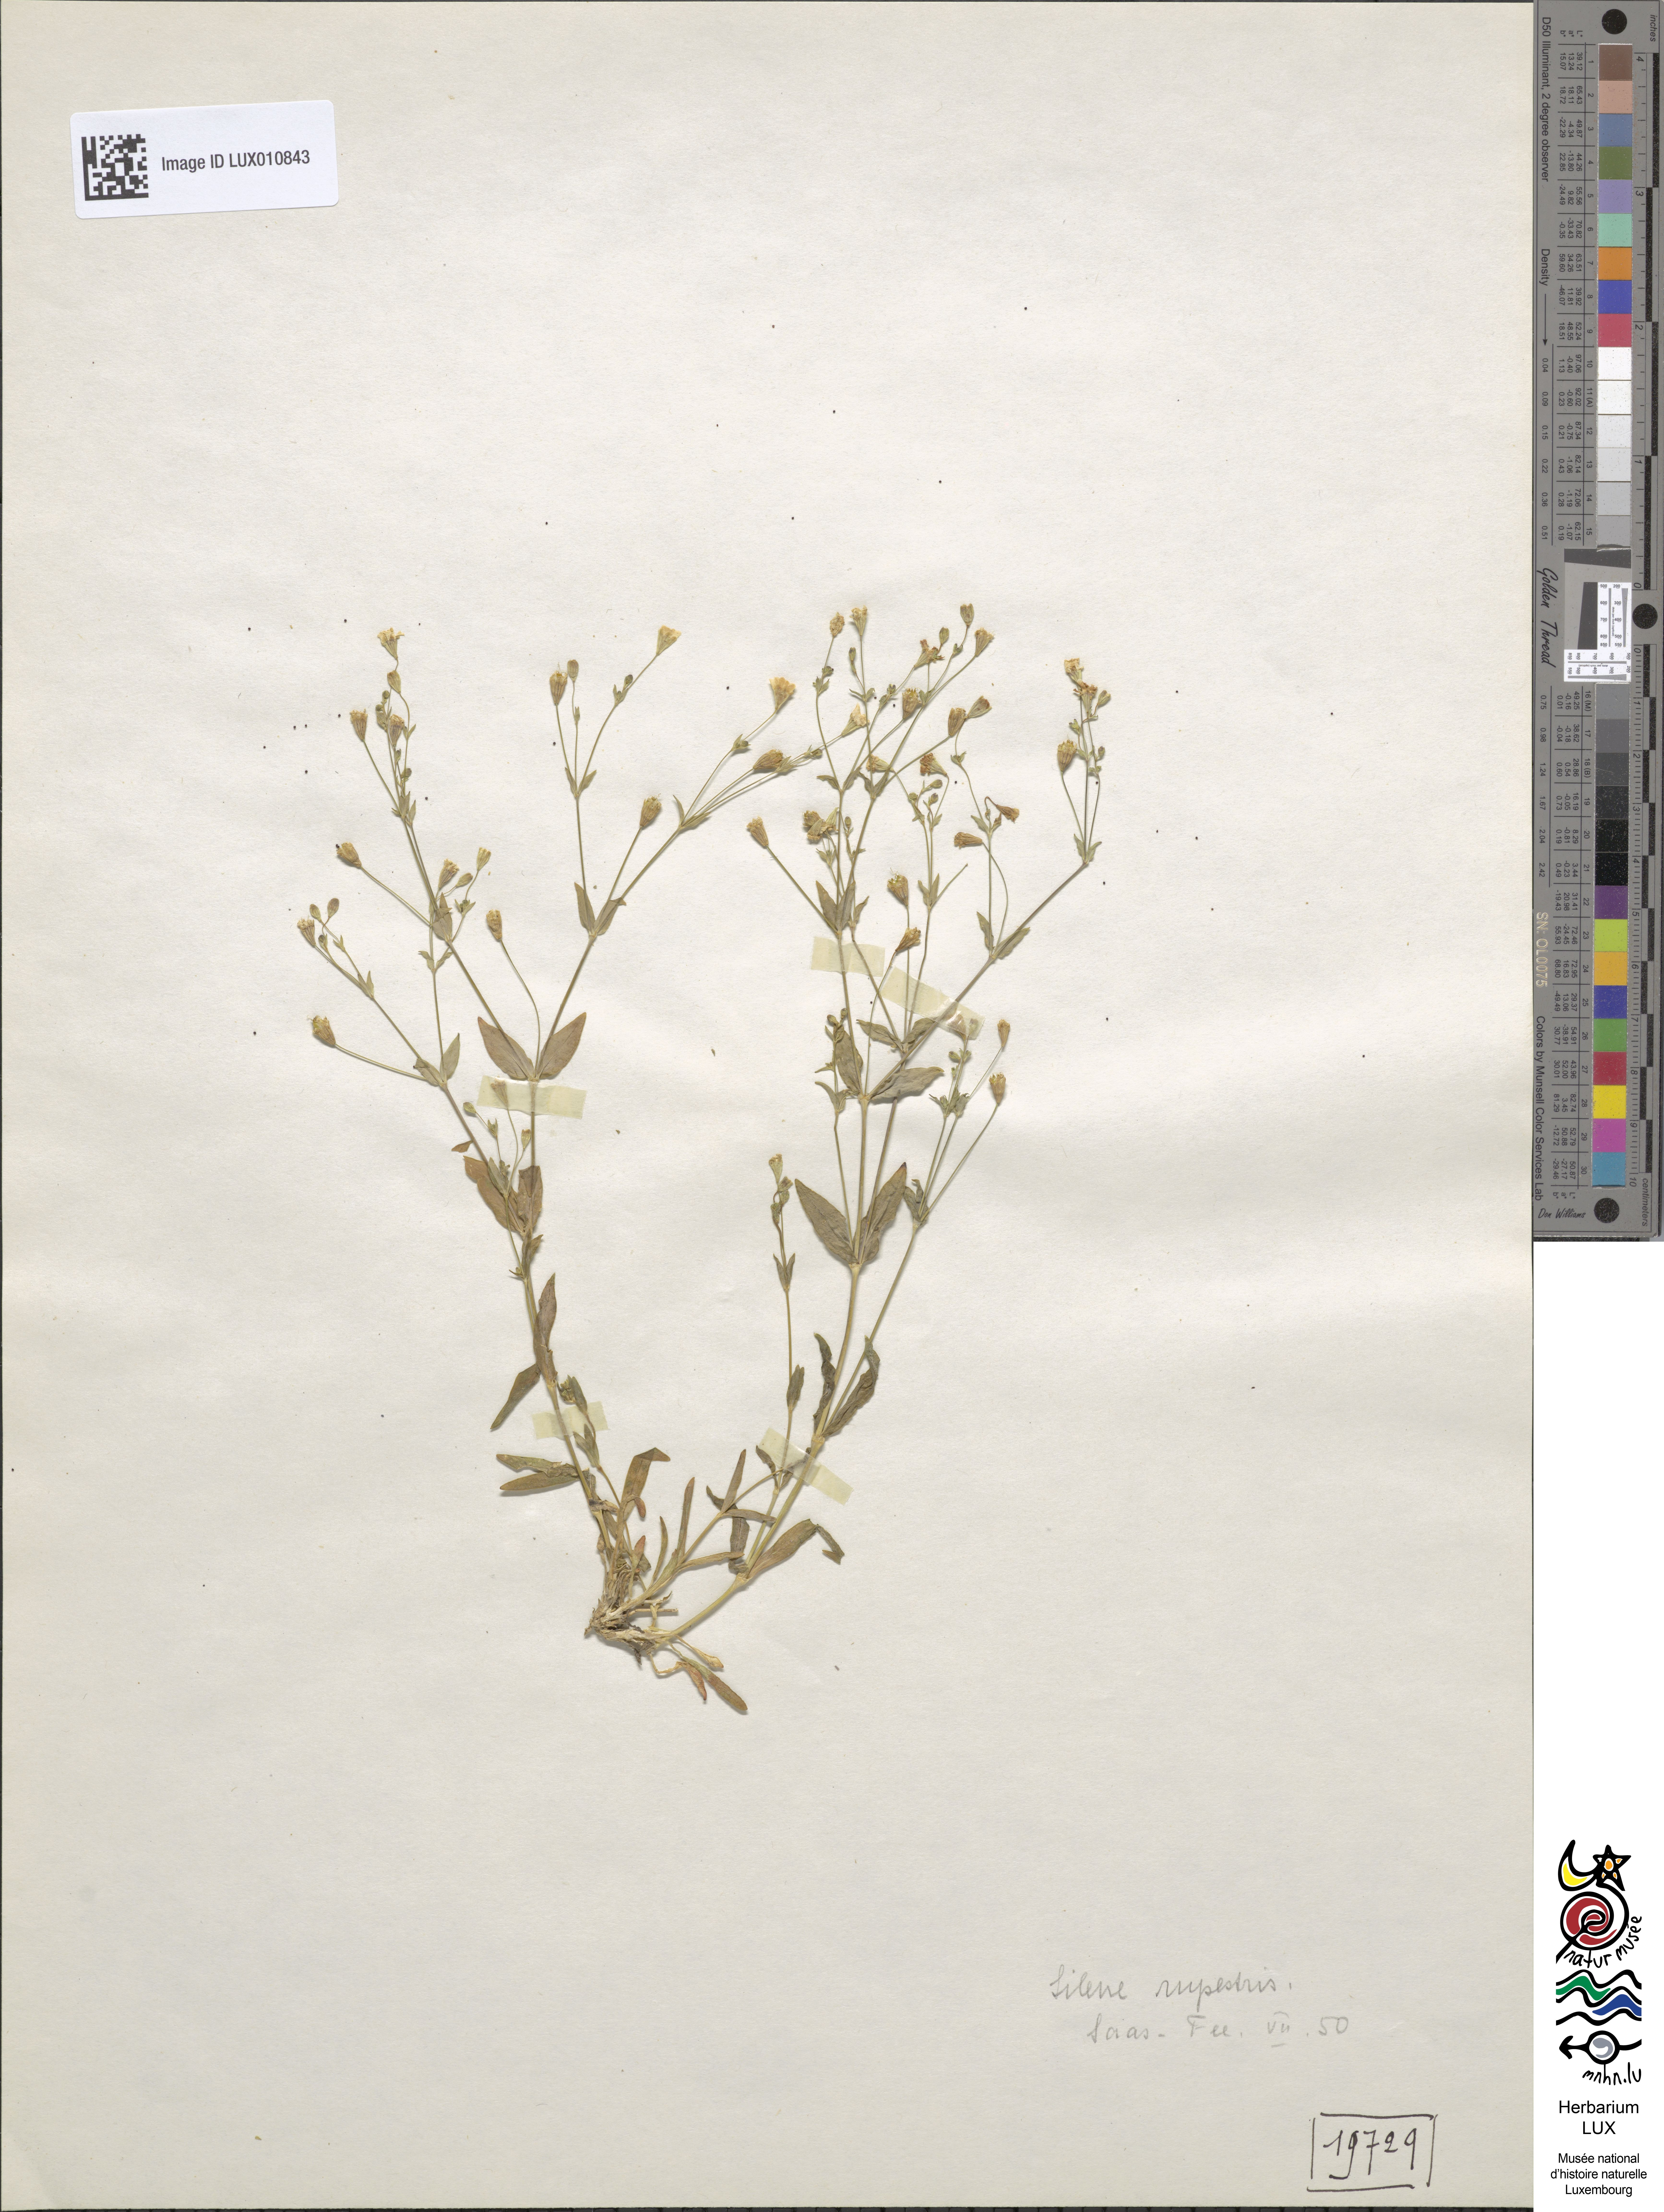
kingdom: Plantae
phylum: Tracheophyta
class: Magnoliopsida
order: Caryophyllales
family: Caryophyllaceae
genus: Atocion
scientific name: Atocion rupestre
